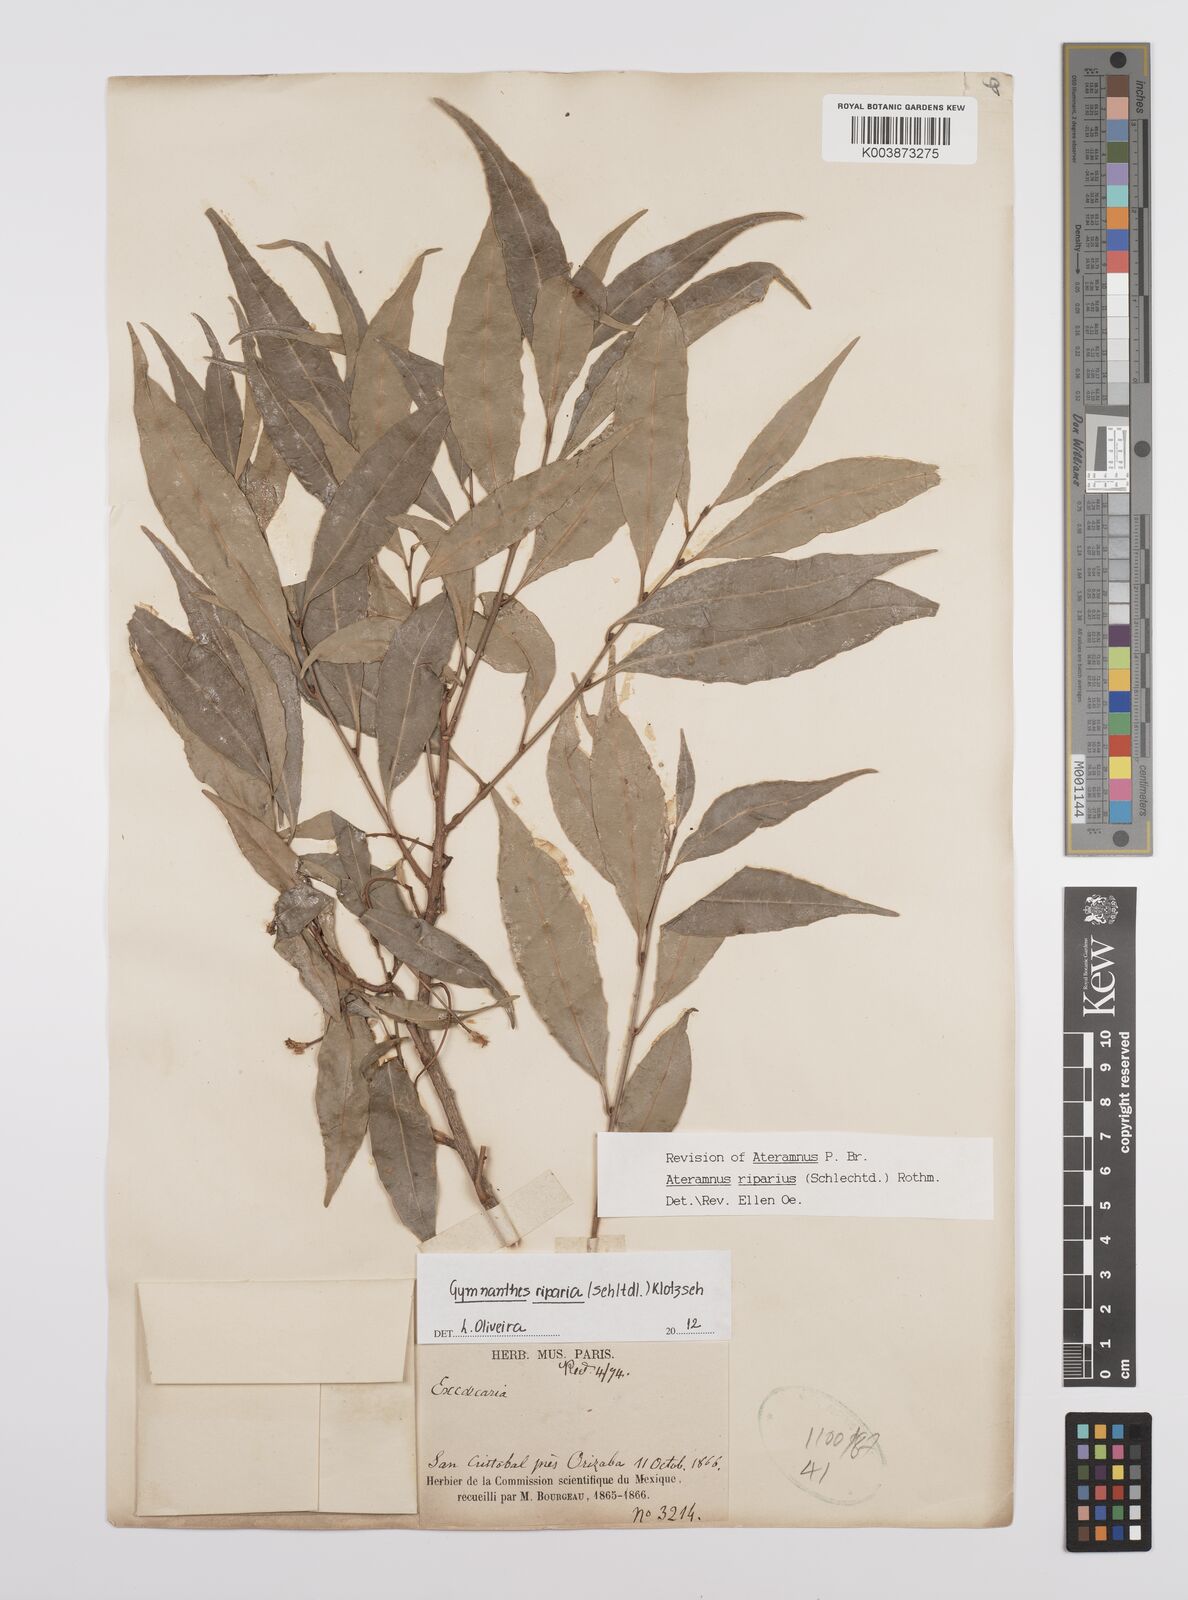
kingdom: Plantae
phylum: Tracheophyta
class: Magnoliopsida
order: Malpighiales
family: Euphorbiaceae
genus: Gymnanthes
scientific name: Gymnanthes riparia
